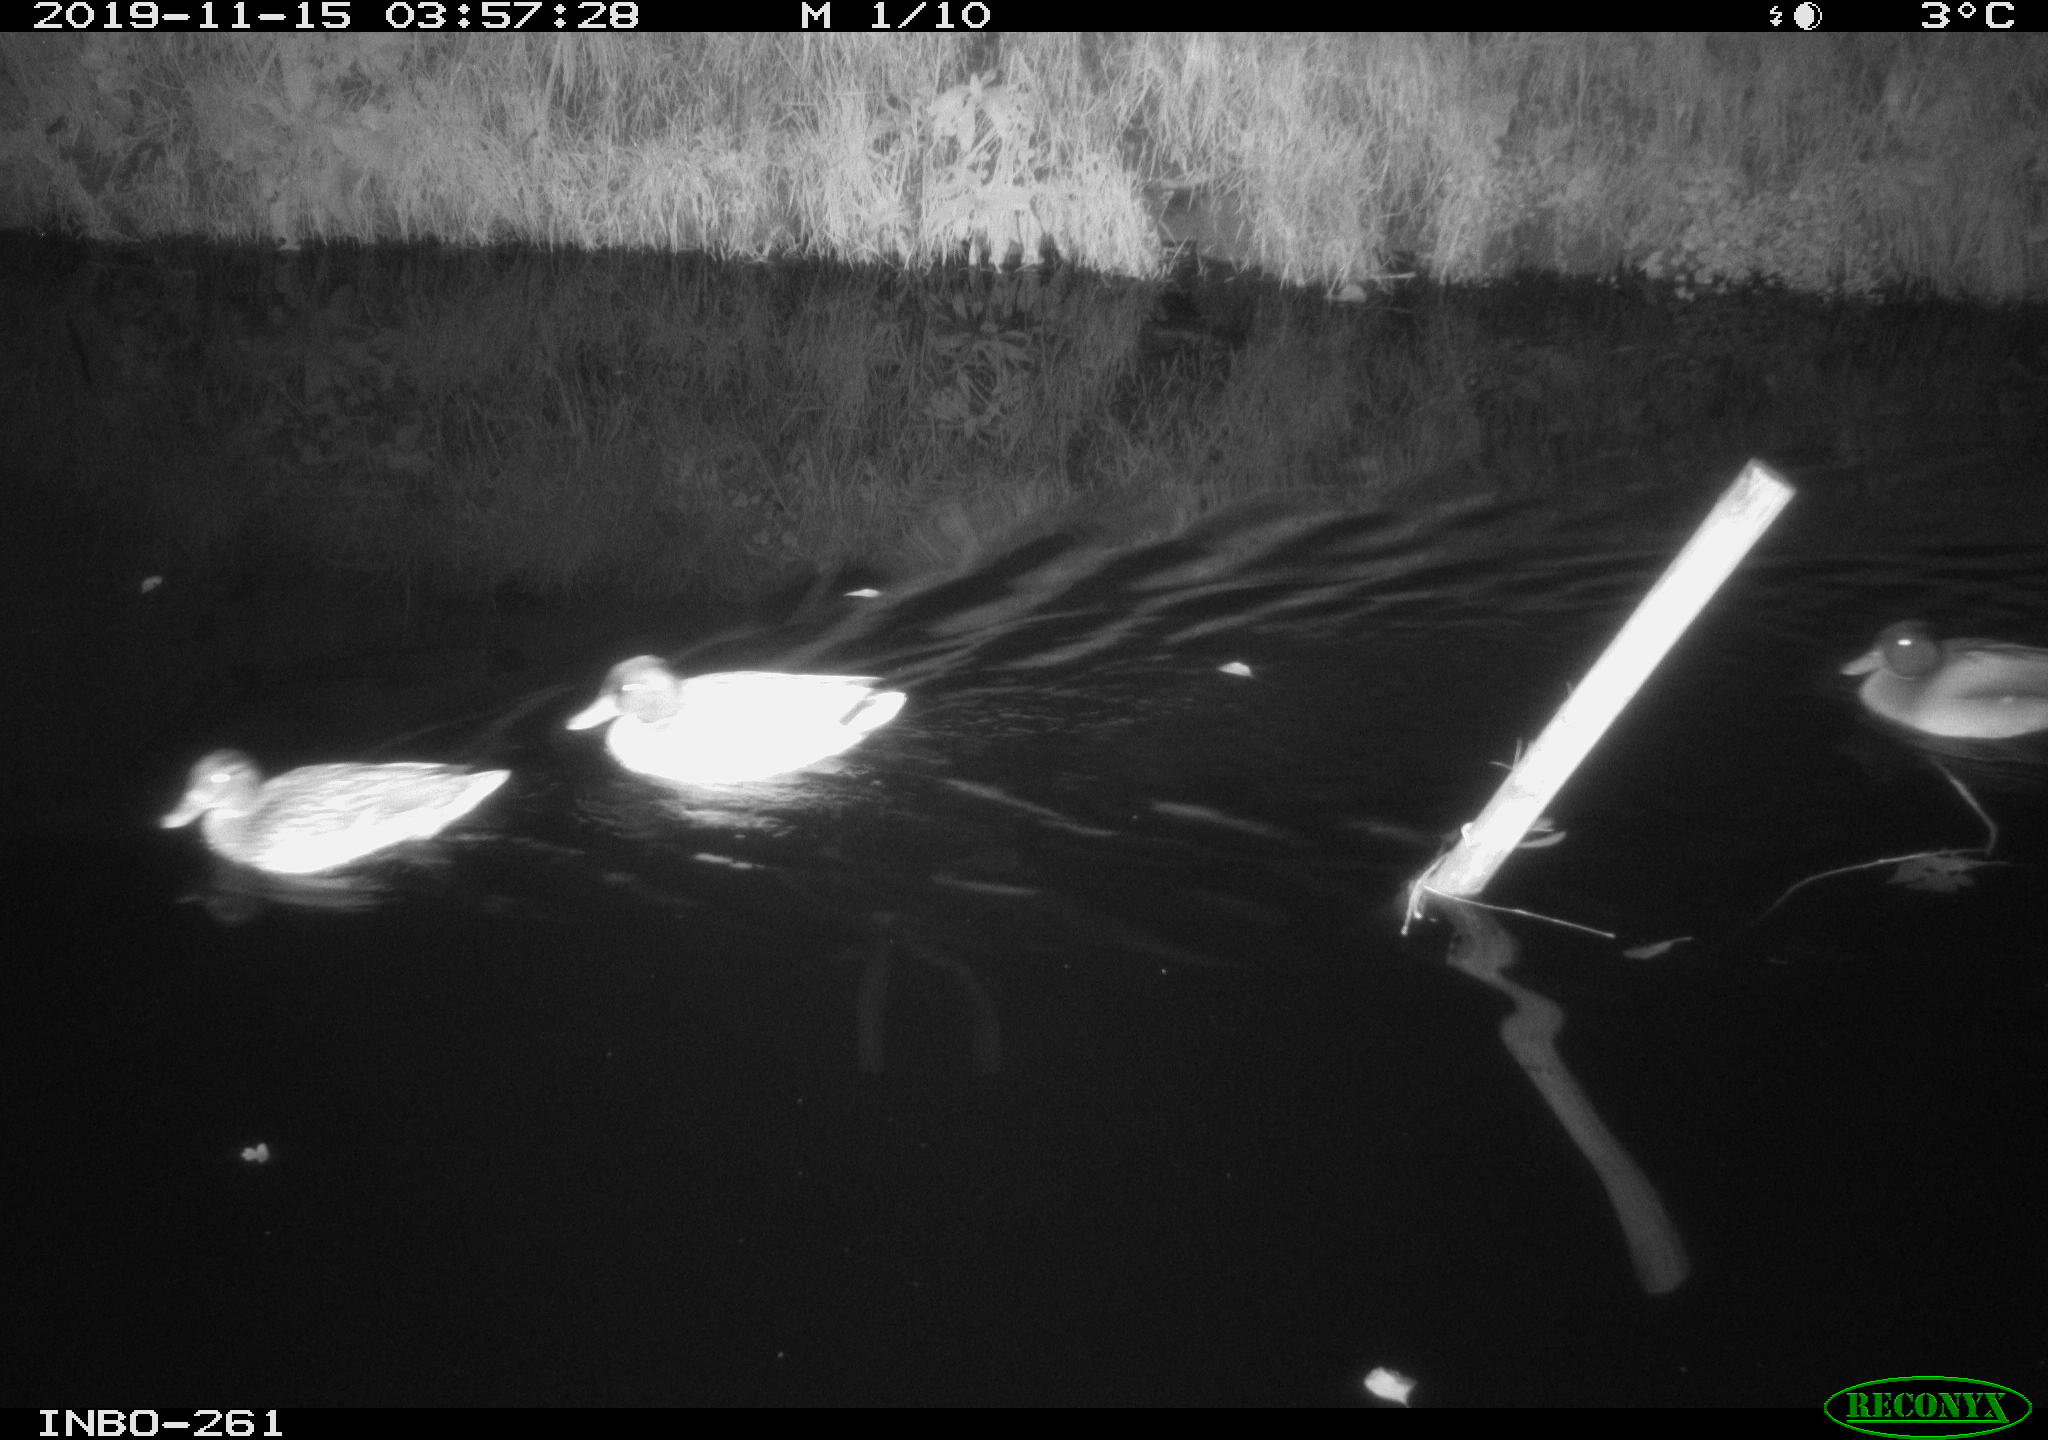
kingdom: Animalia
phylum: Chordata
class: Aves
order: Anseriformes
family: Anatidae
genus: Anas
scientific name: Anas platyrhynchos
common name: Mallard
